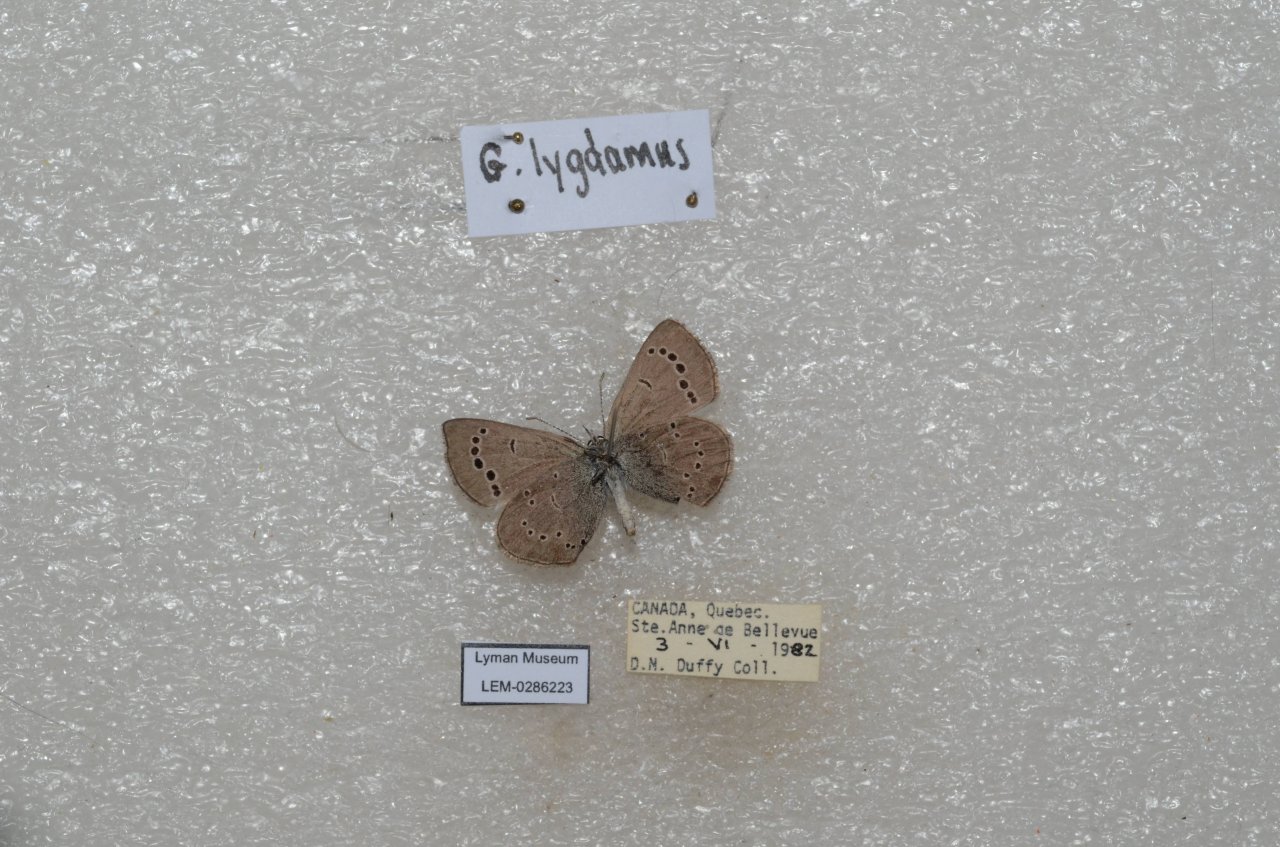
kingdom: Animalia
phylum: Arthropoda
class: Insecta
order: Lepidoptera
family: Lycaenidae
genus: Glaucopsyche
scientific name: Glaucopsyche lygdamus
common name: Silvery Blue
